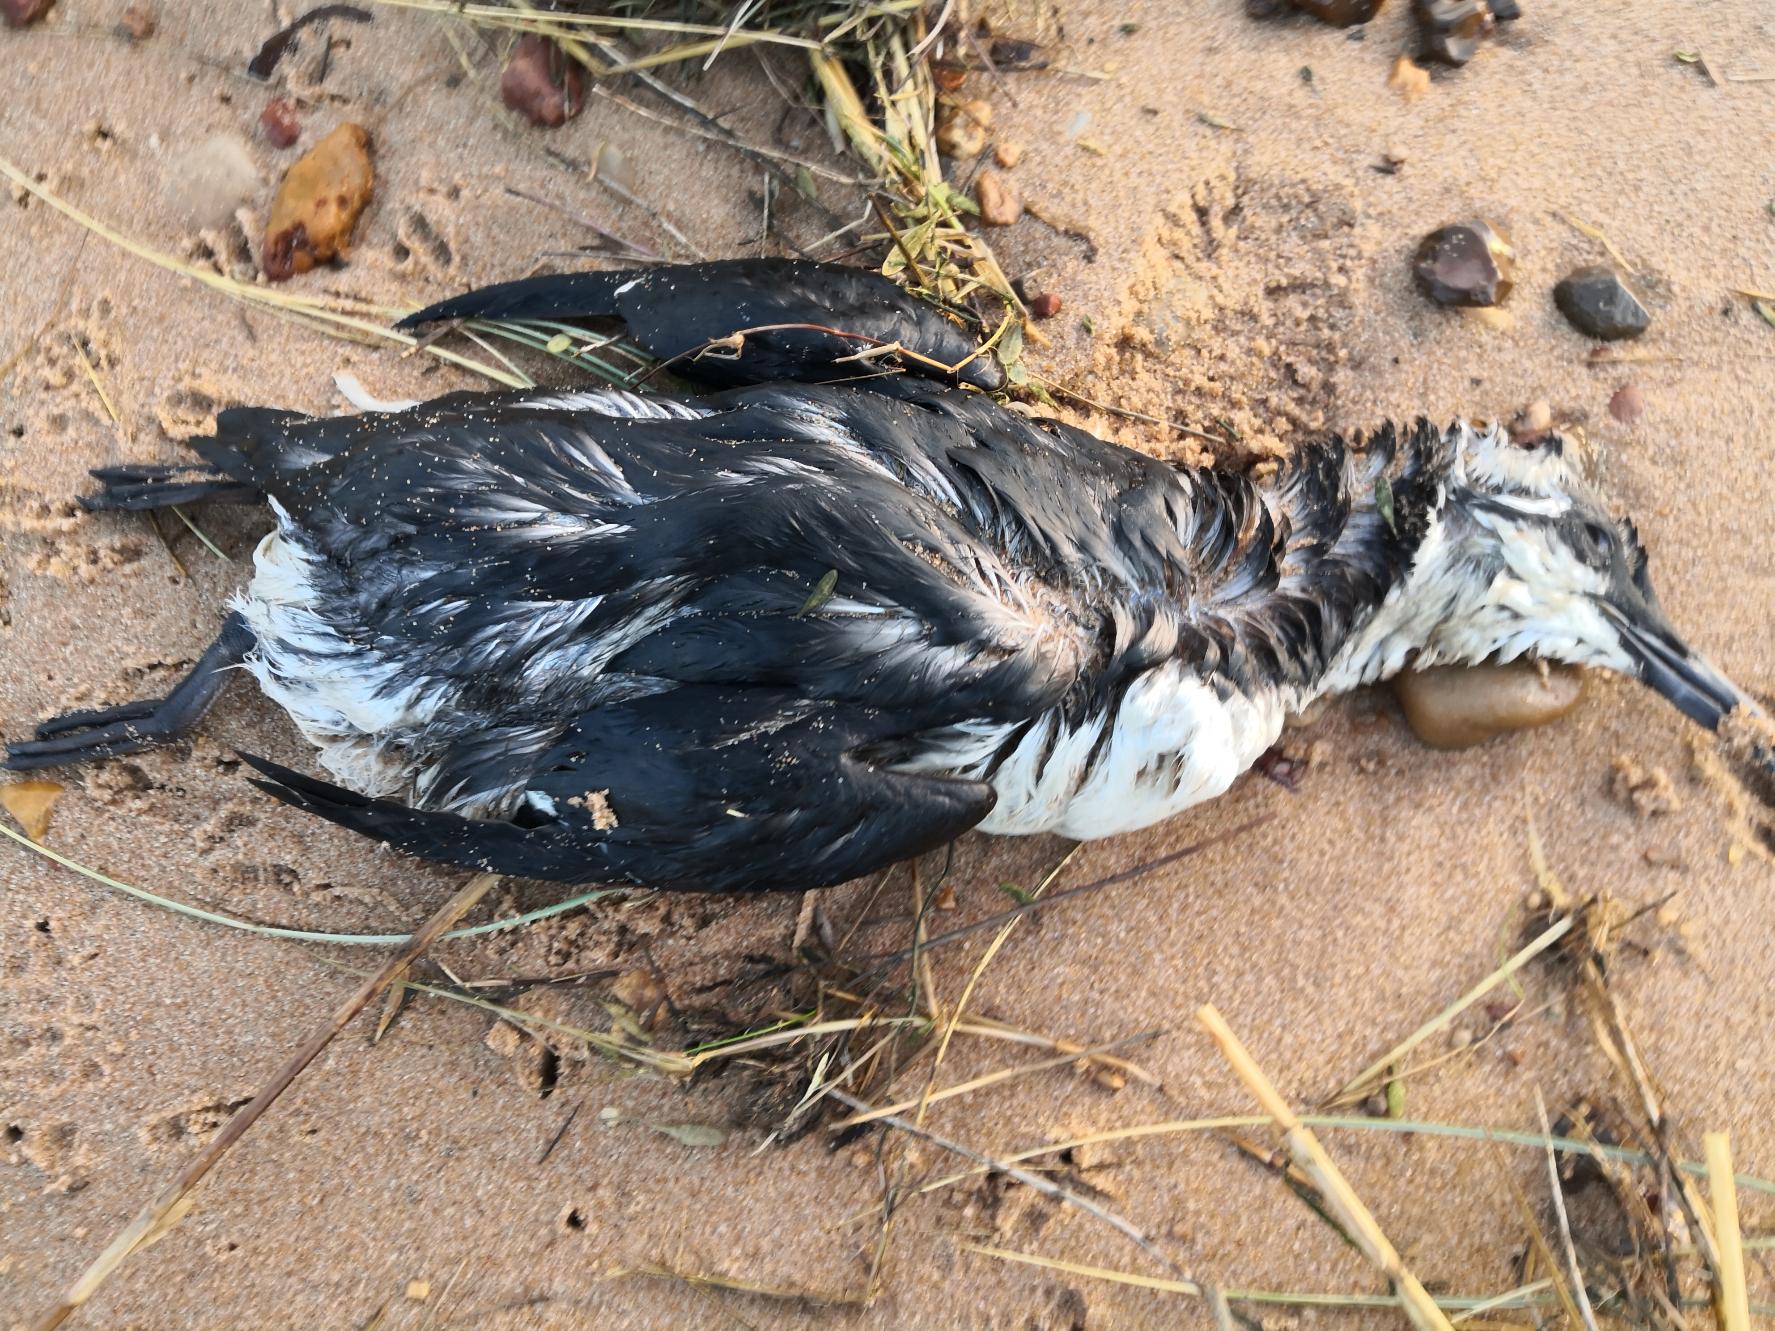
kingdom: Animalia
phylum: Chordata
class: Aves
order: Charadriiformes
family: Alcidae
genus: Uria
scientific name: Uria aalge
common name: Lomvie
